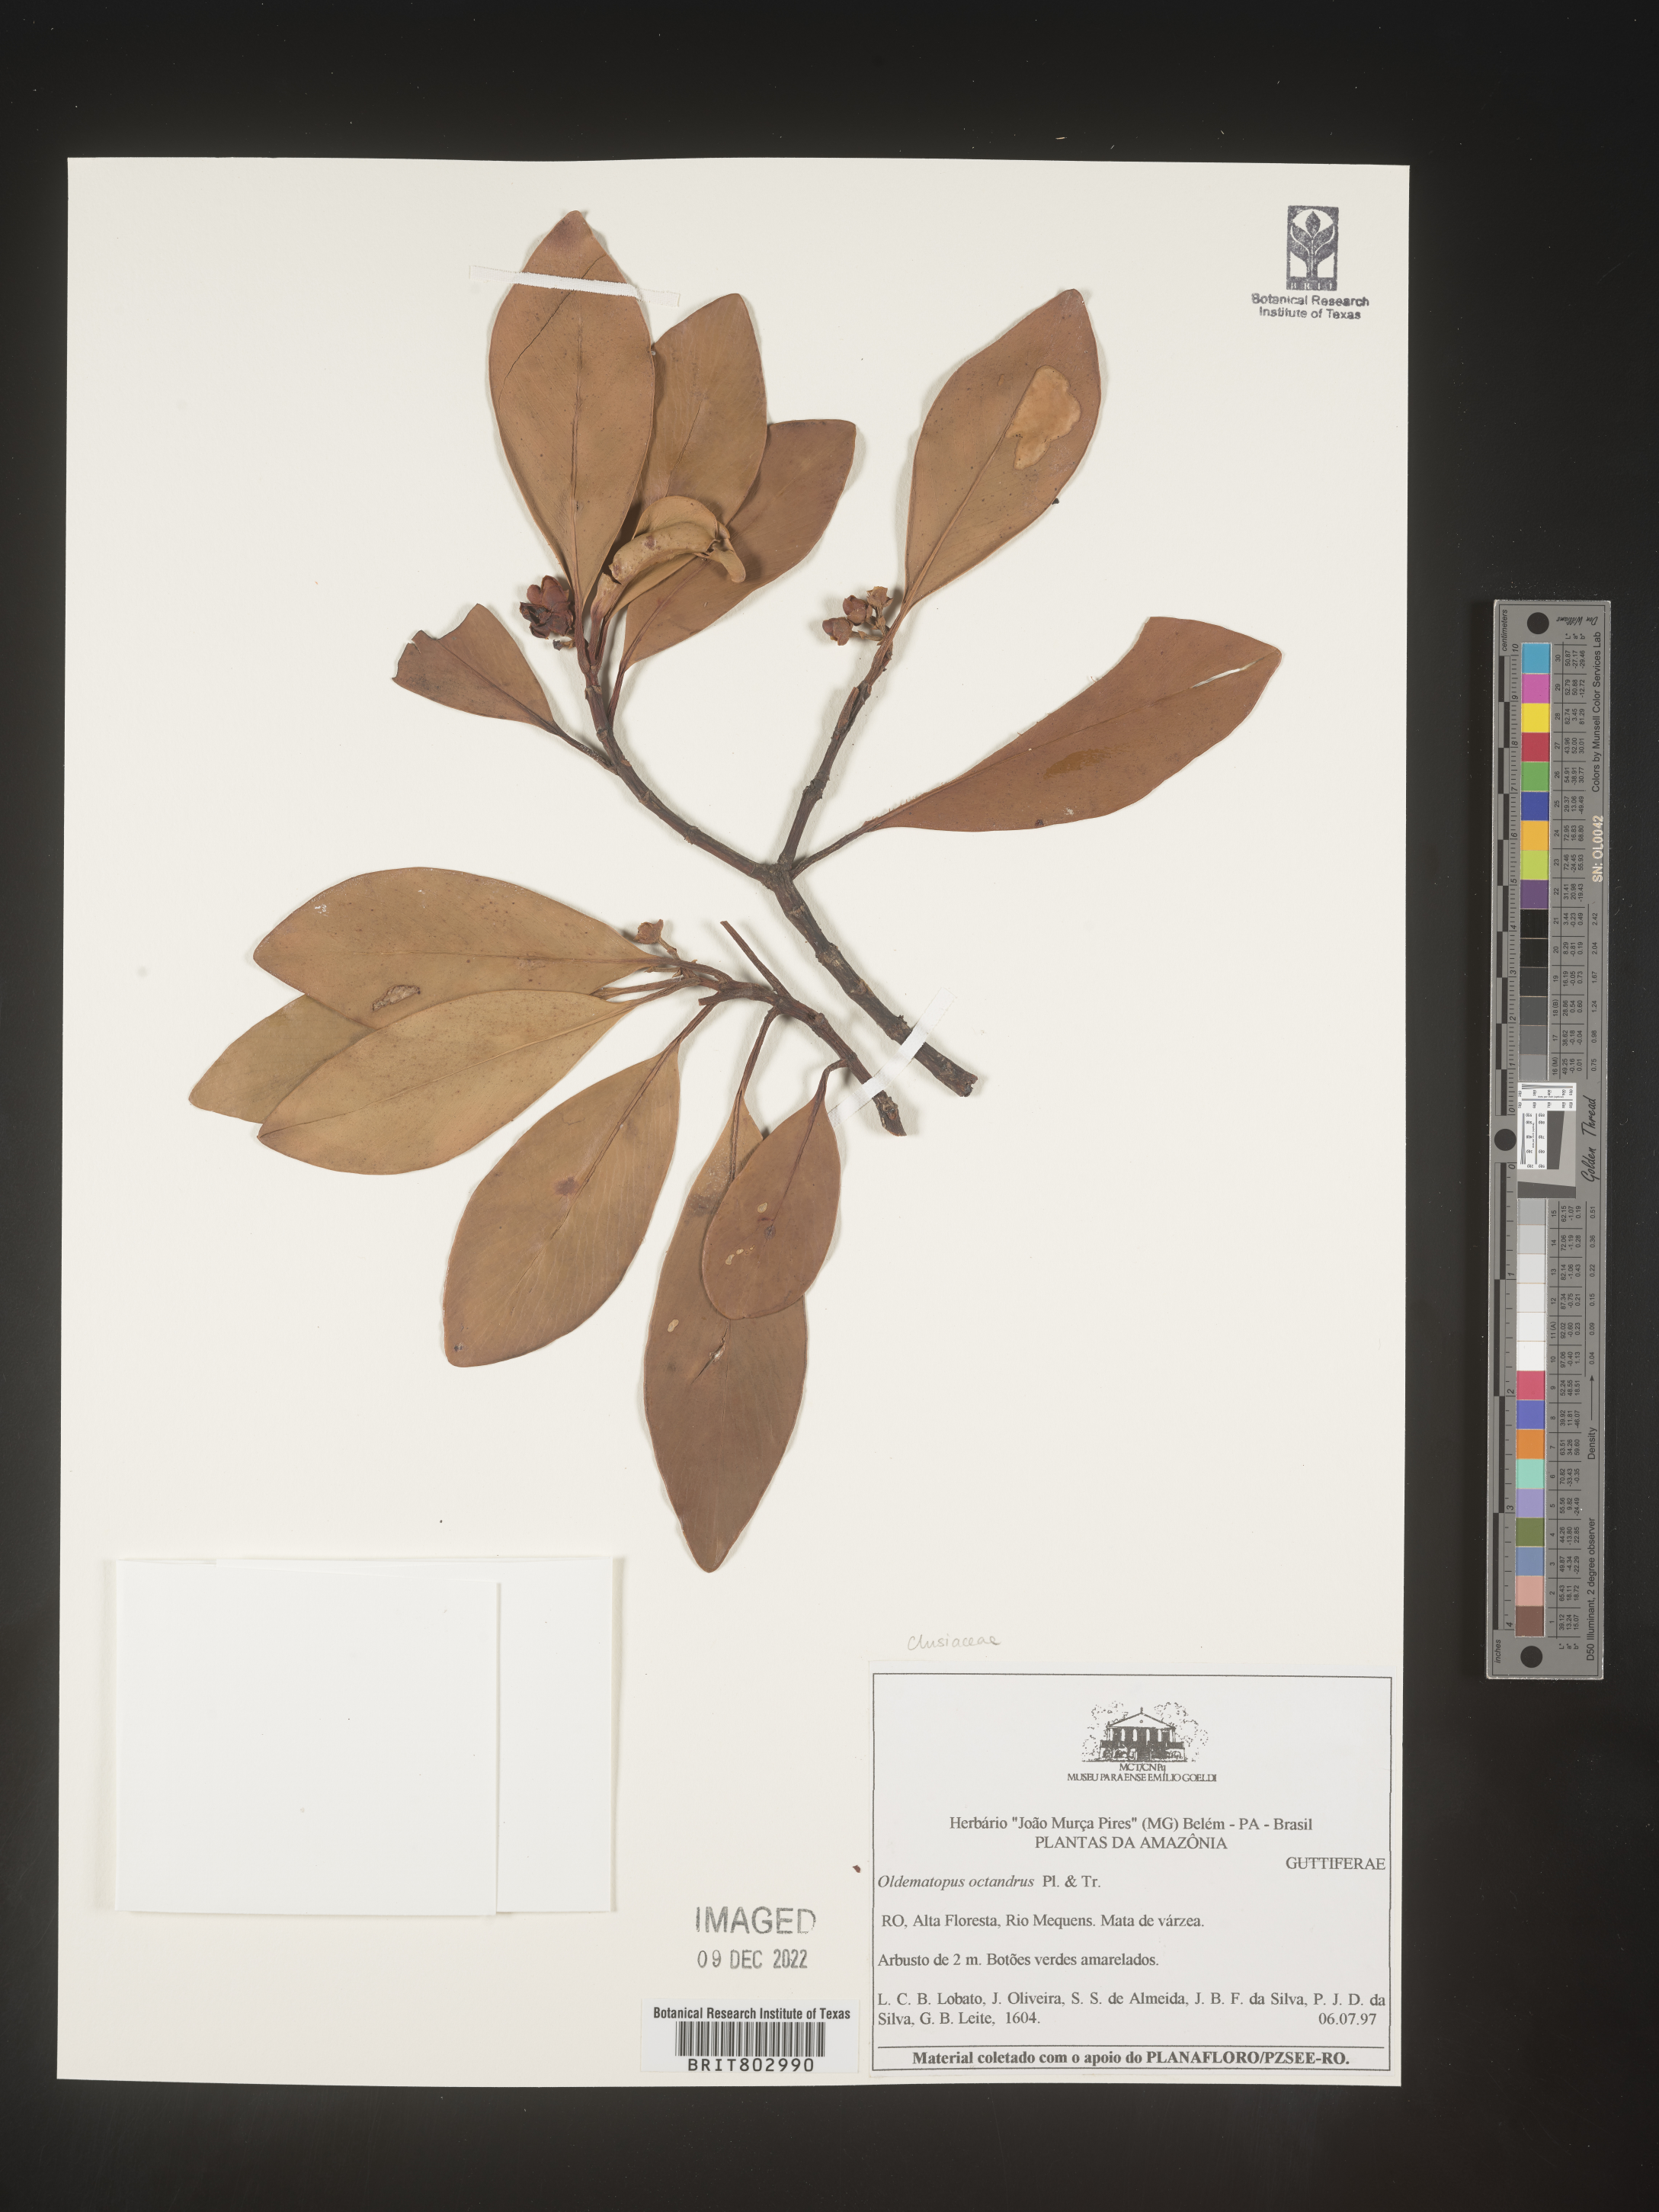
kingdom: Animalia
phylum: Arthropoda
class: Insecta
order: Diptera
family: Dolichopodidae
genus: Oedematopus
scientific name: Oedematopus
